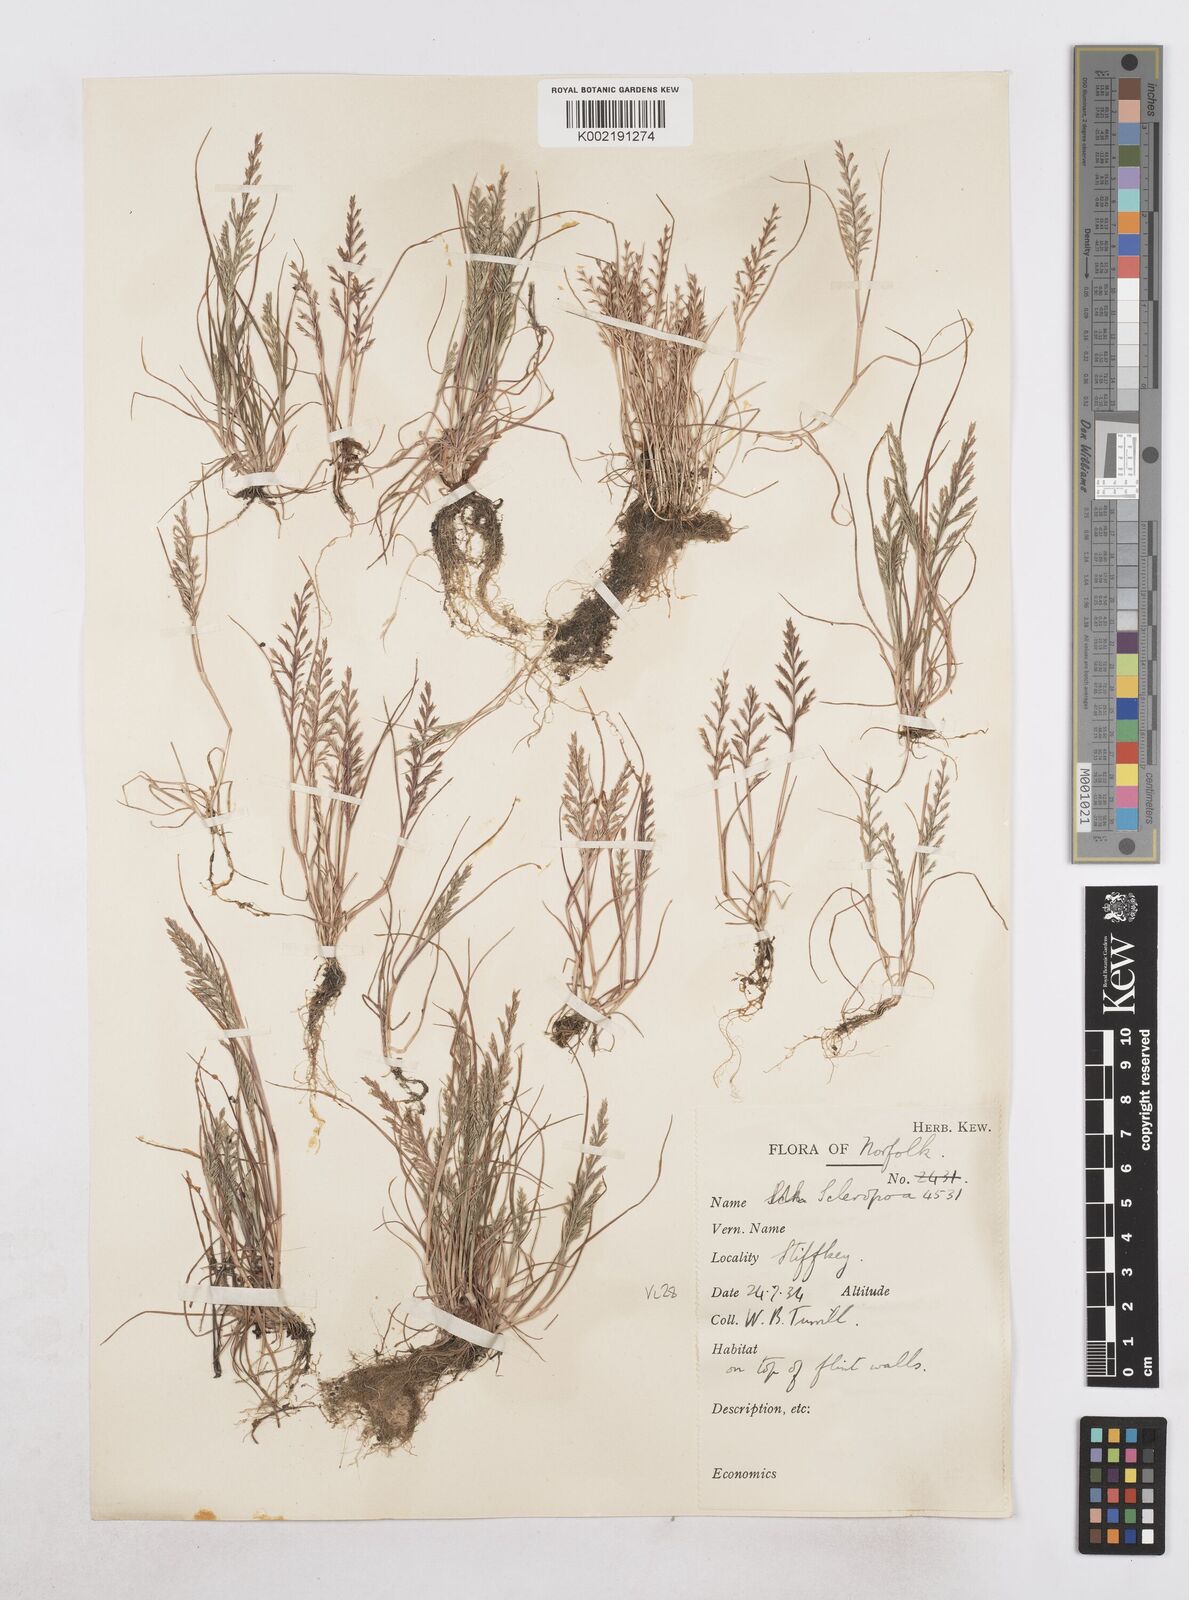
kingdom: Plantae
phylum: Tracheophyta
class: Liliopsida
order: Poales
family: Poaceae
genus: Catapodium
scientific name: Catapodium rigidum
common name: Fern-grass
